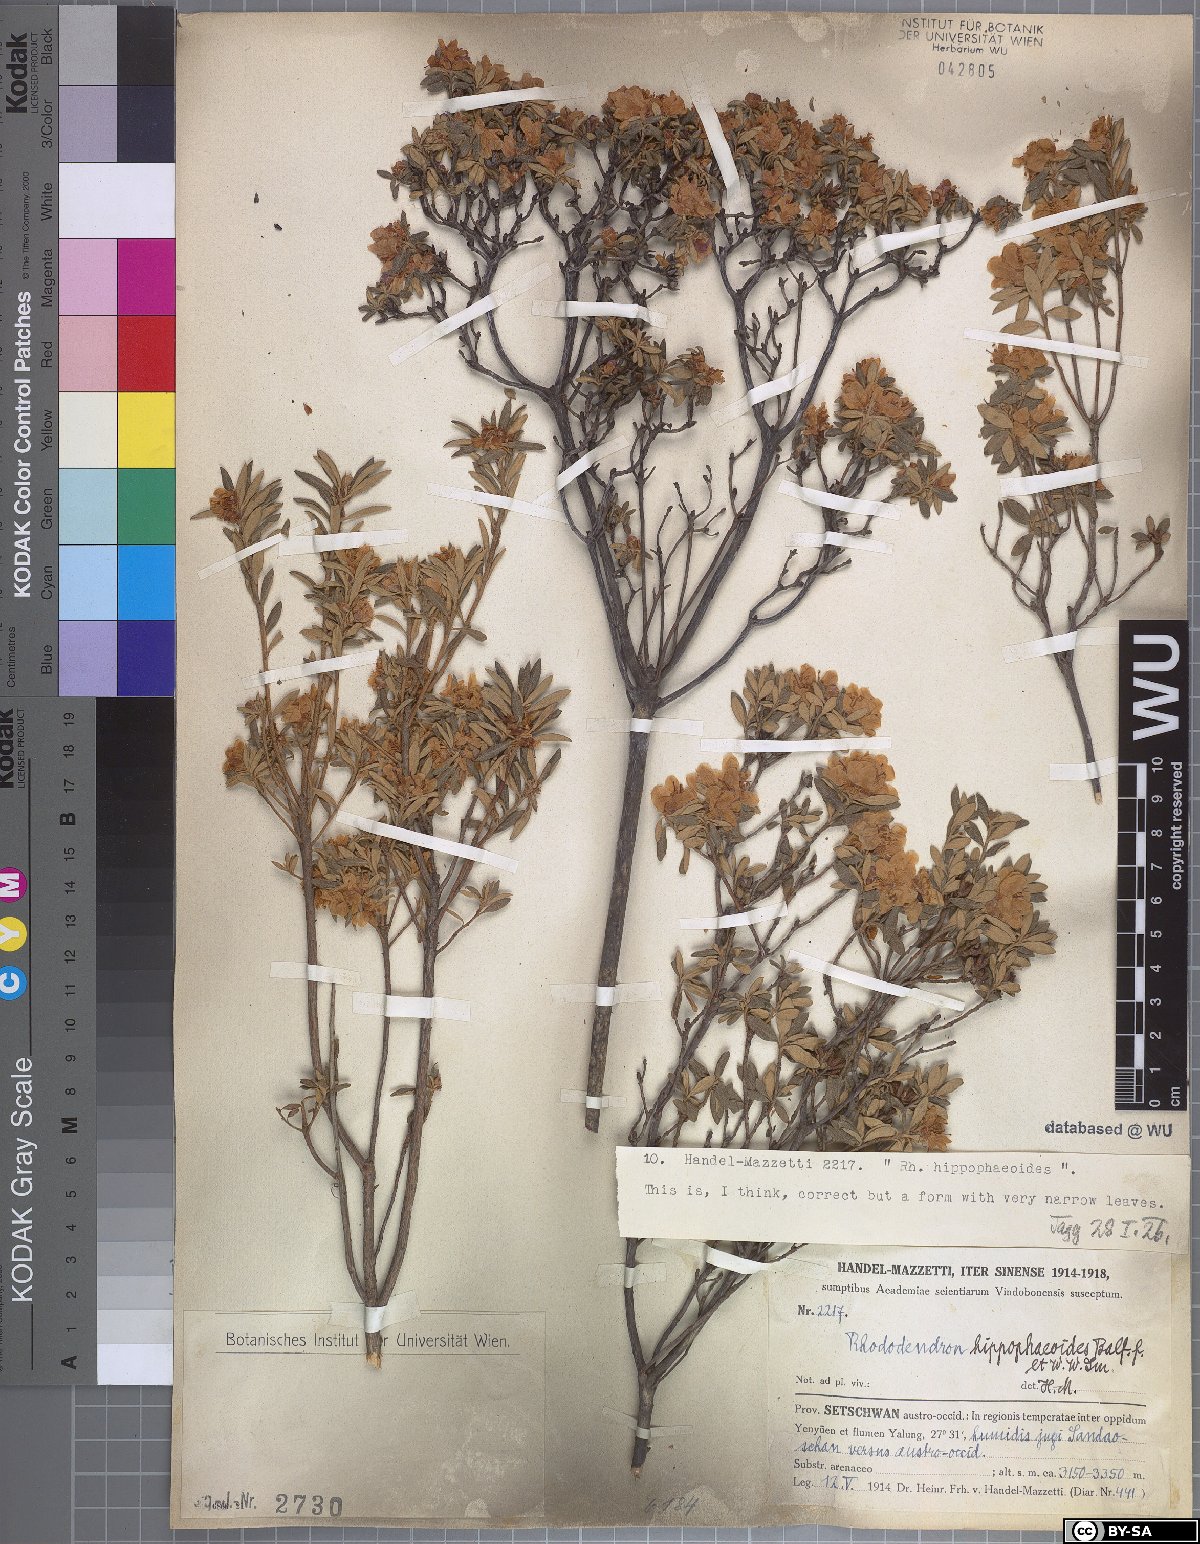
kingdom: Plantae
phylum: Tracheophyta
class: Magnoliopsida
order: Ericales
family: Ericaceae
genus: Rhododendron
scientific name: Rhododendron hippophaeoides
